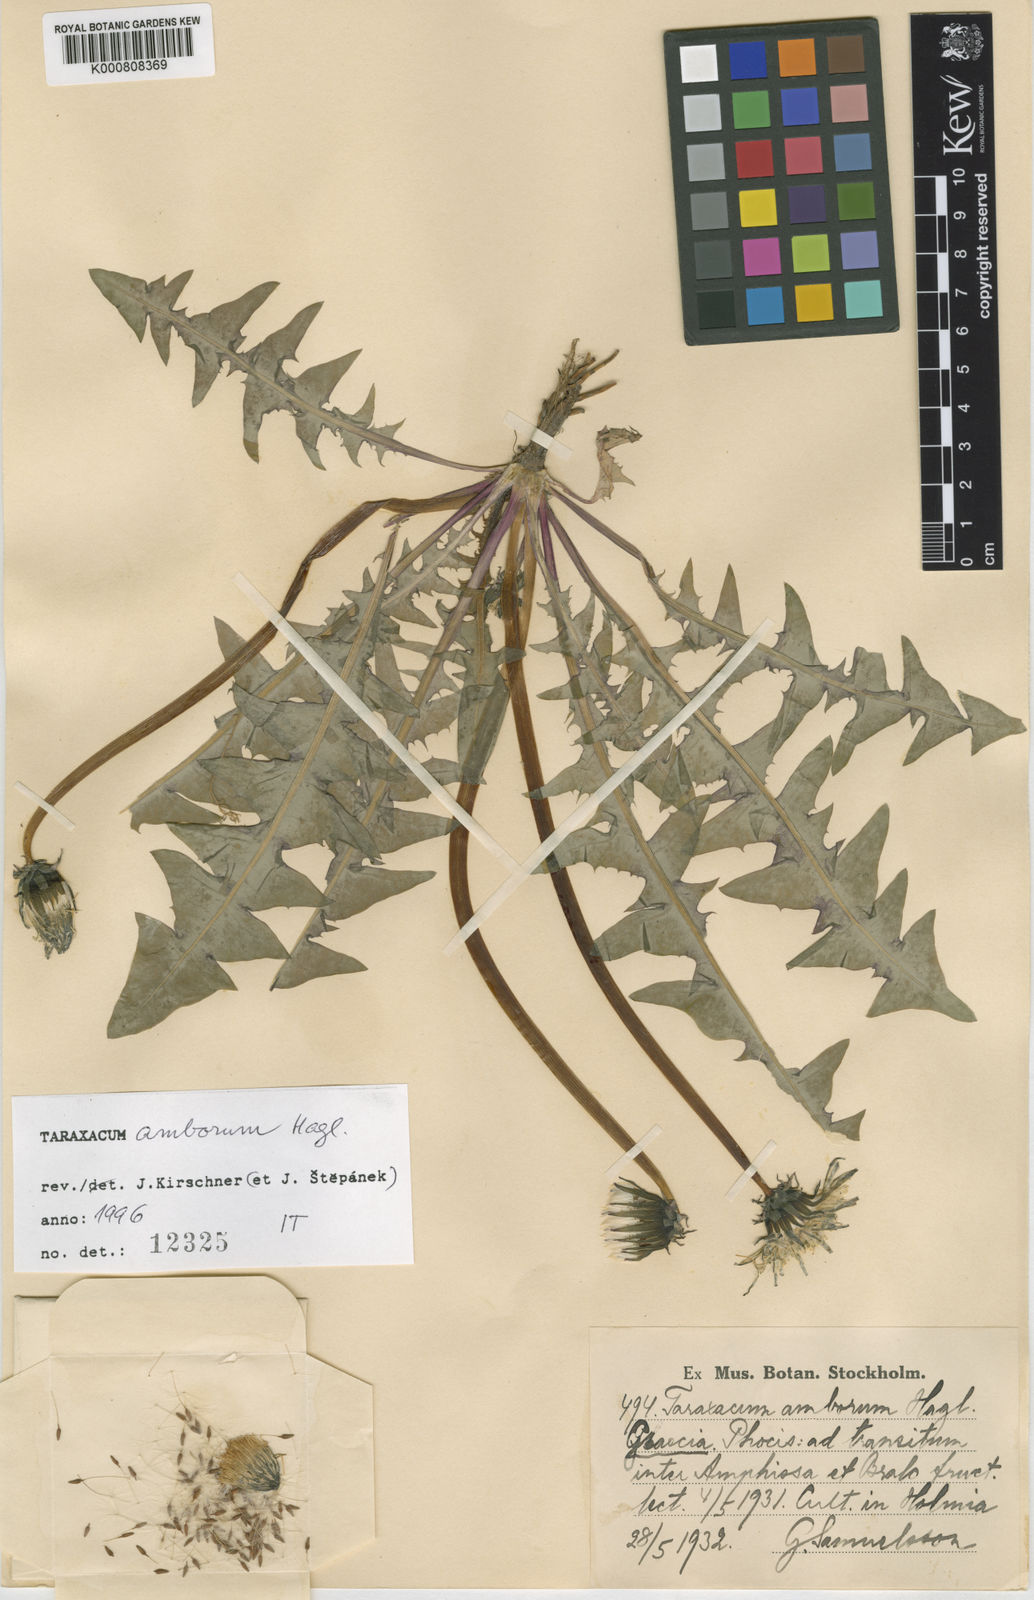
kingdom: Plantae
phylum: Tracheophyta
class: Magnoliopsida
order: Asterales
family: Asteraceae
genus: Taraxacum
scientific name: Taraxacum amborum
